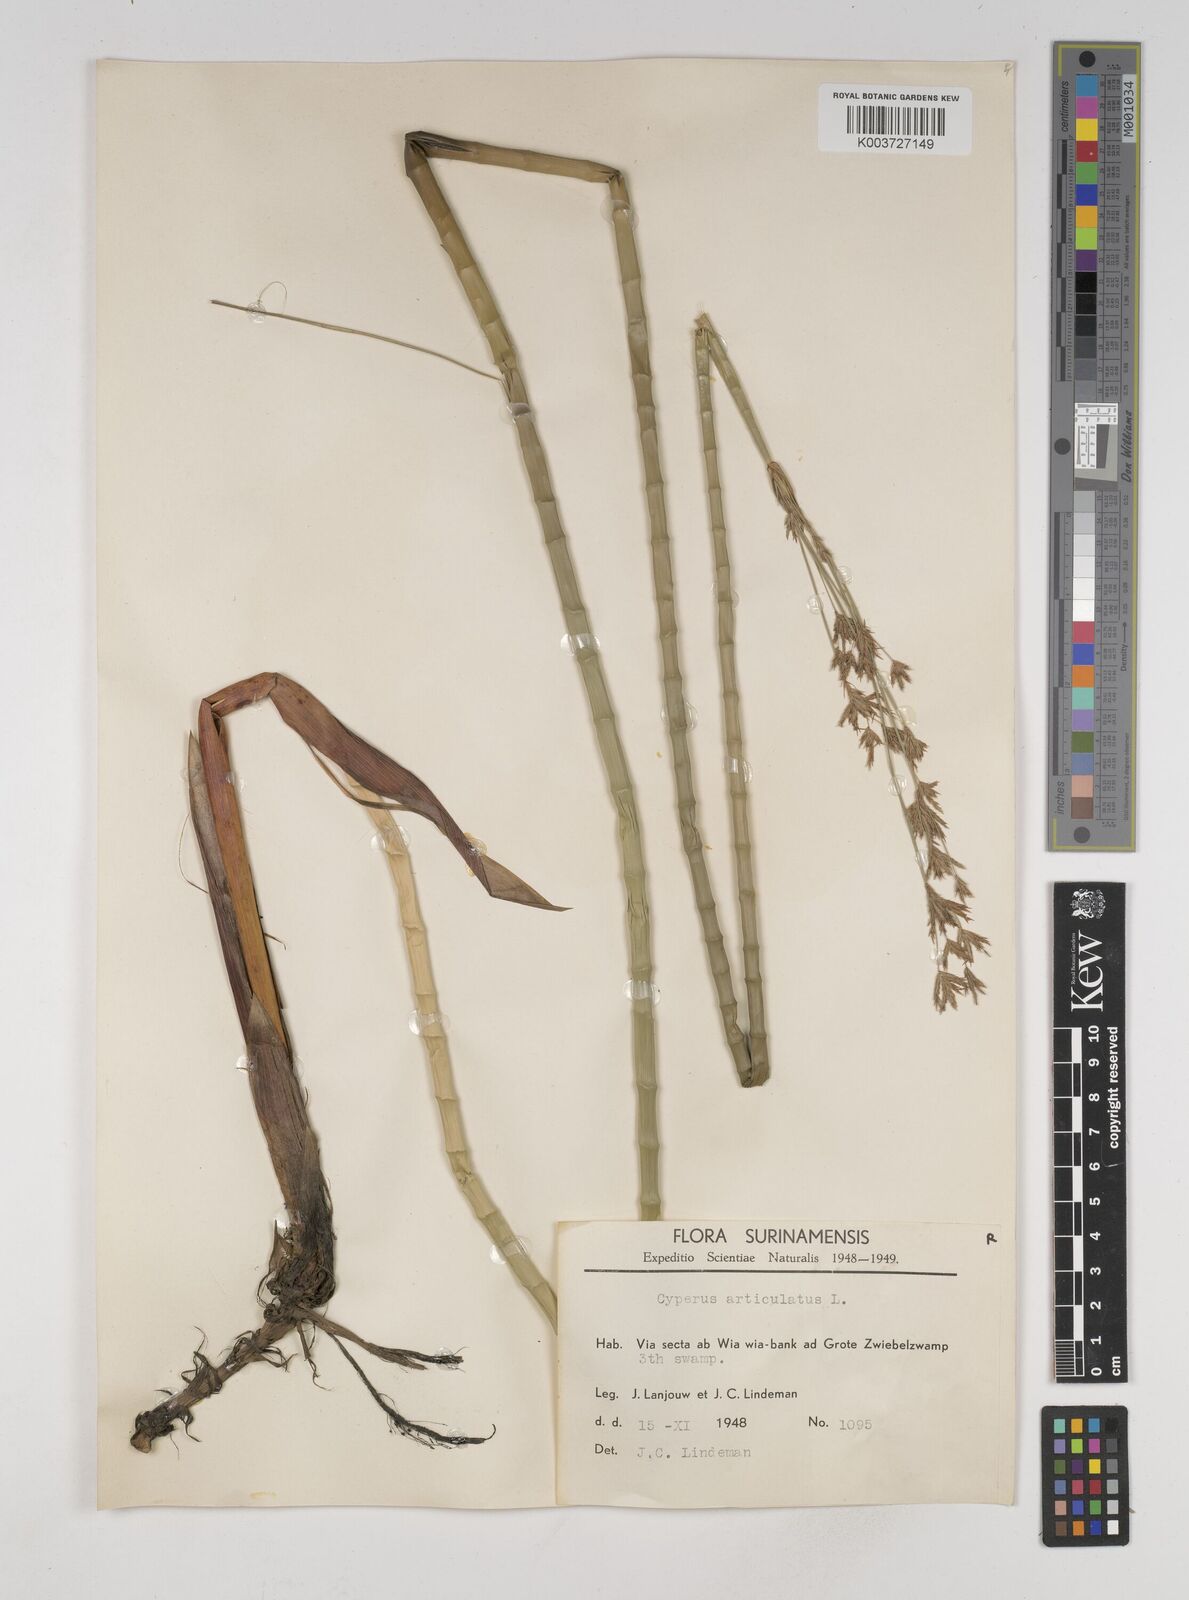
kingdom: Plantae
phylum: Tracheophyta
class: Liliopsida
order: Poales
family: Cyperaceae
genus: Cyperus
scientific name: Cyperus articulatus
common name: Jointed flatsedge
